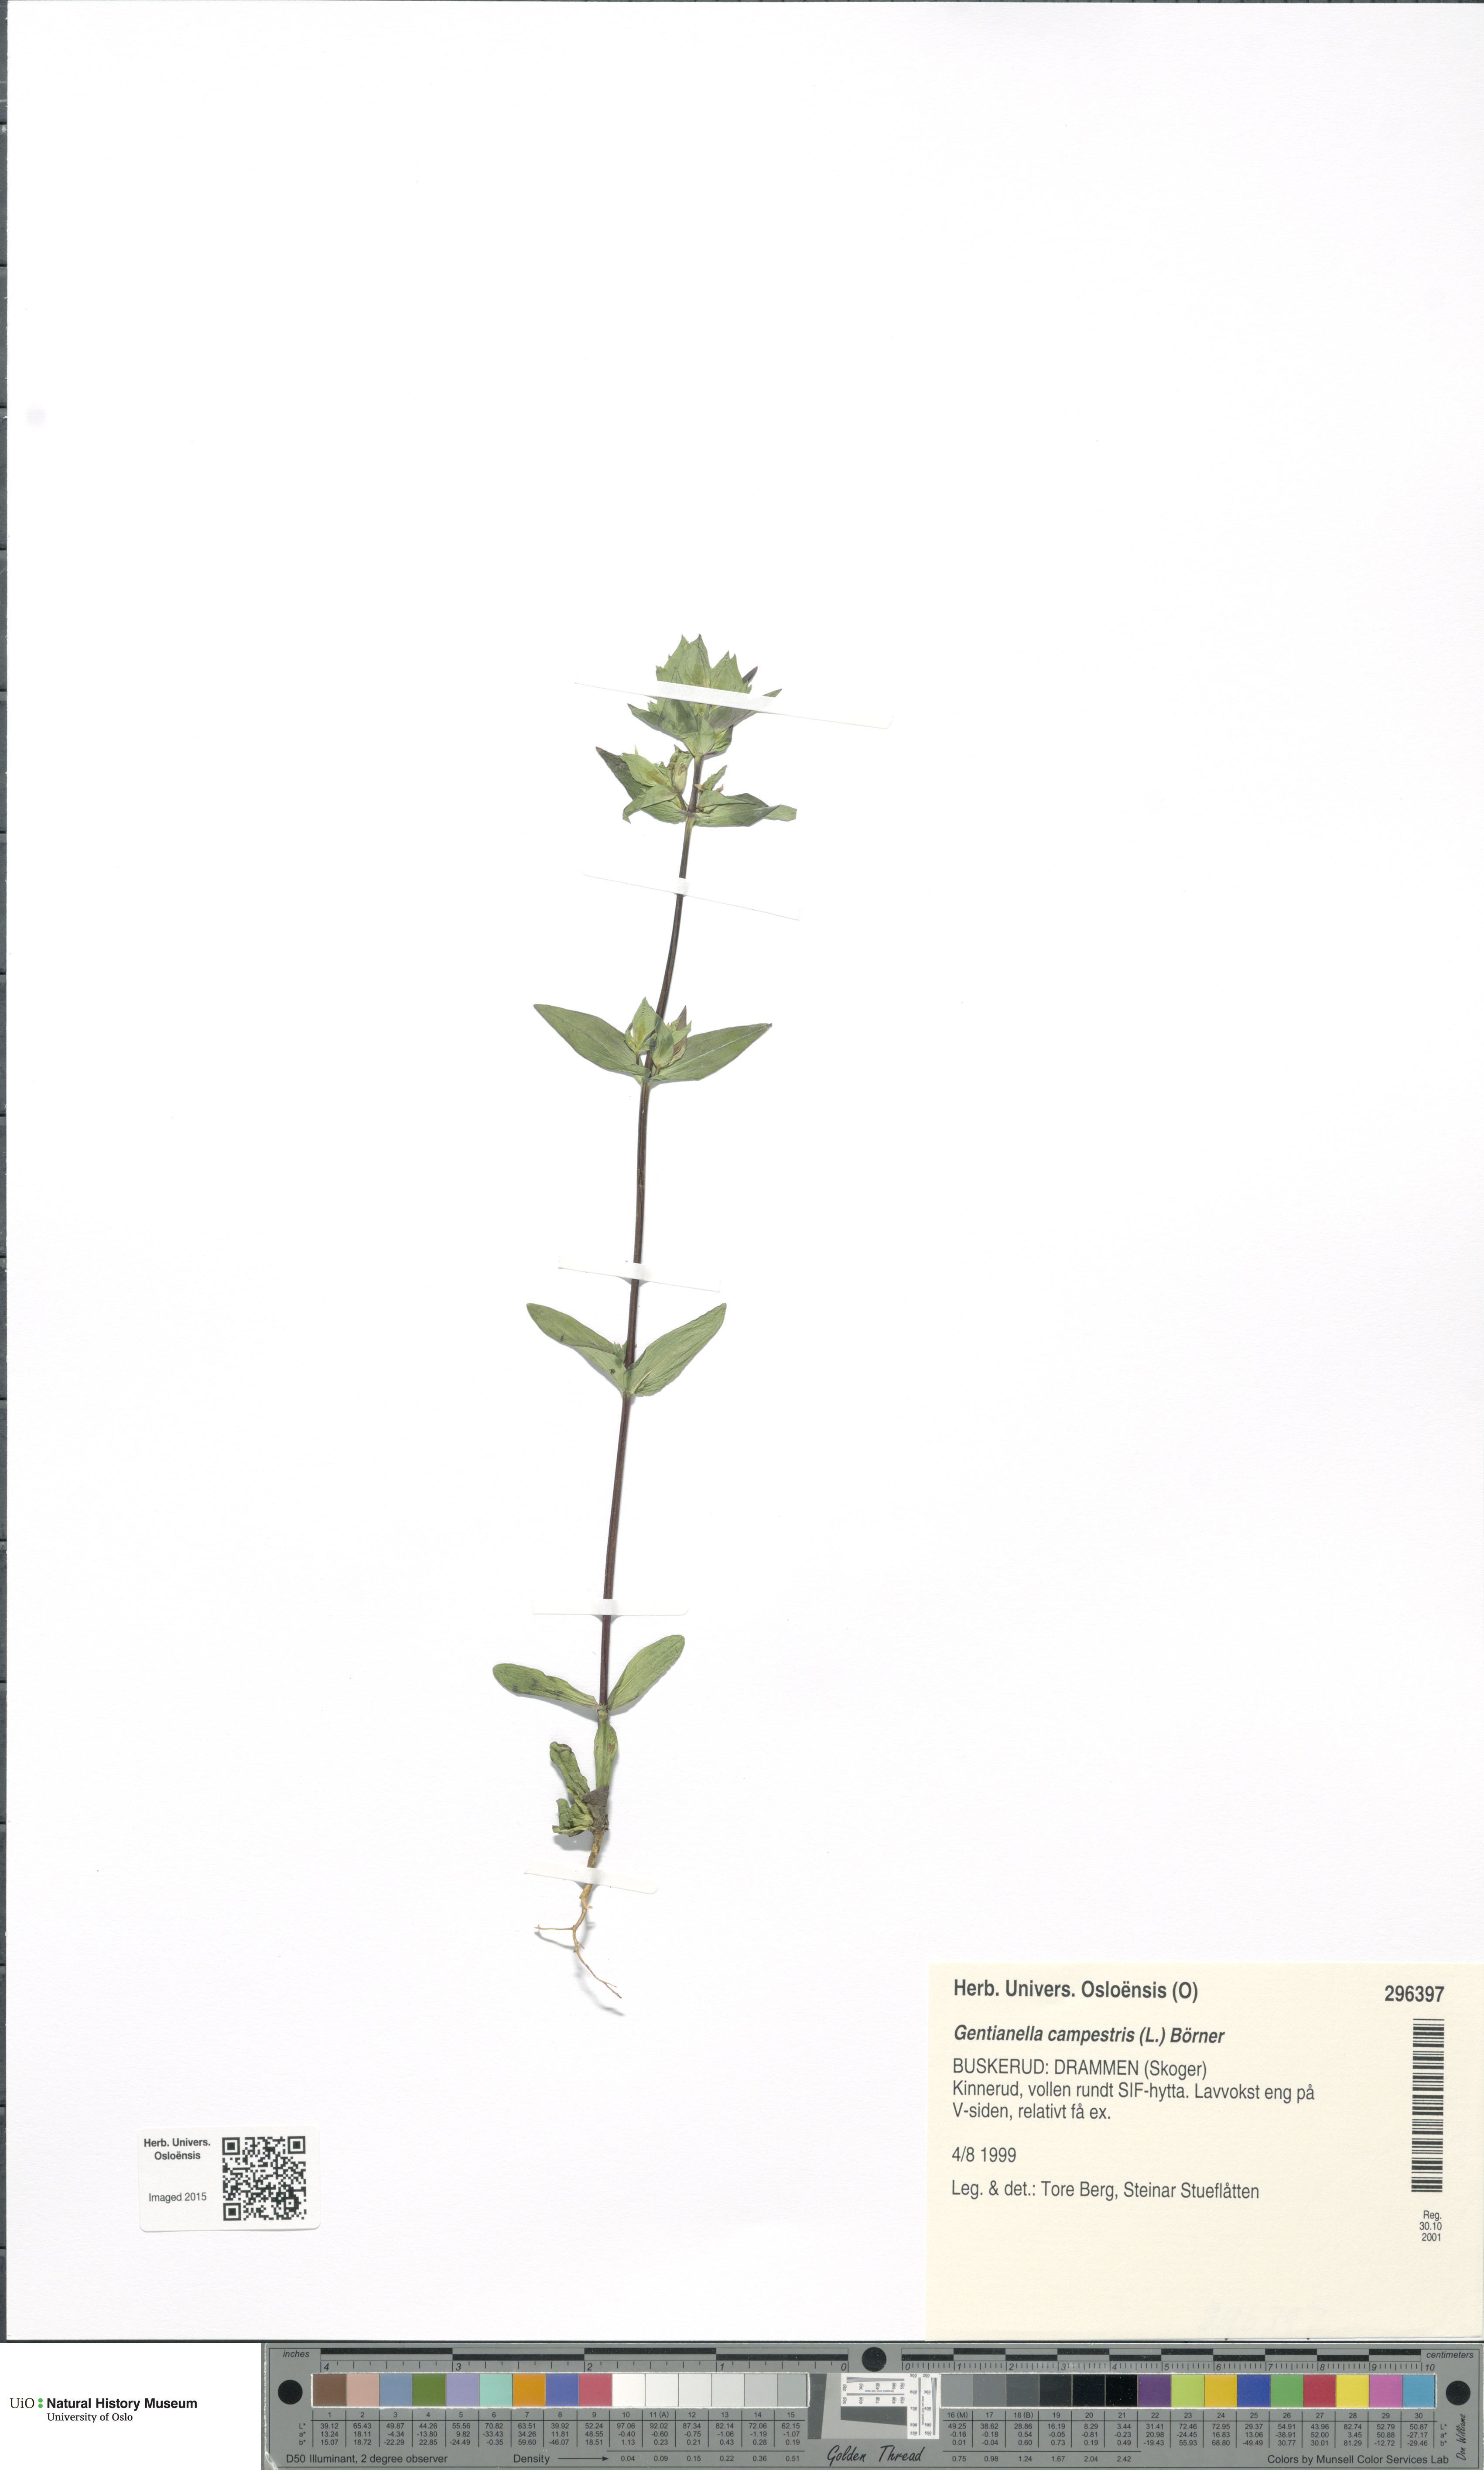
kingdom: Plantae
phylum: Tracheophyta
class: Magnoliopsida
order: Gentianales
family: Gentianaceae
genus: Gentianella
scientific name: Gentianella campestris
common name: Field gentian
